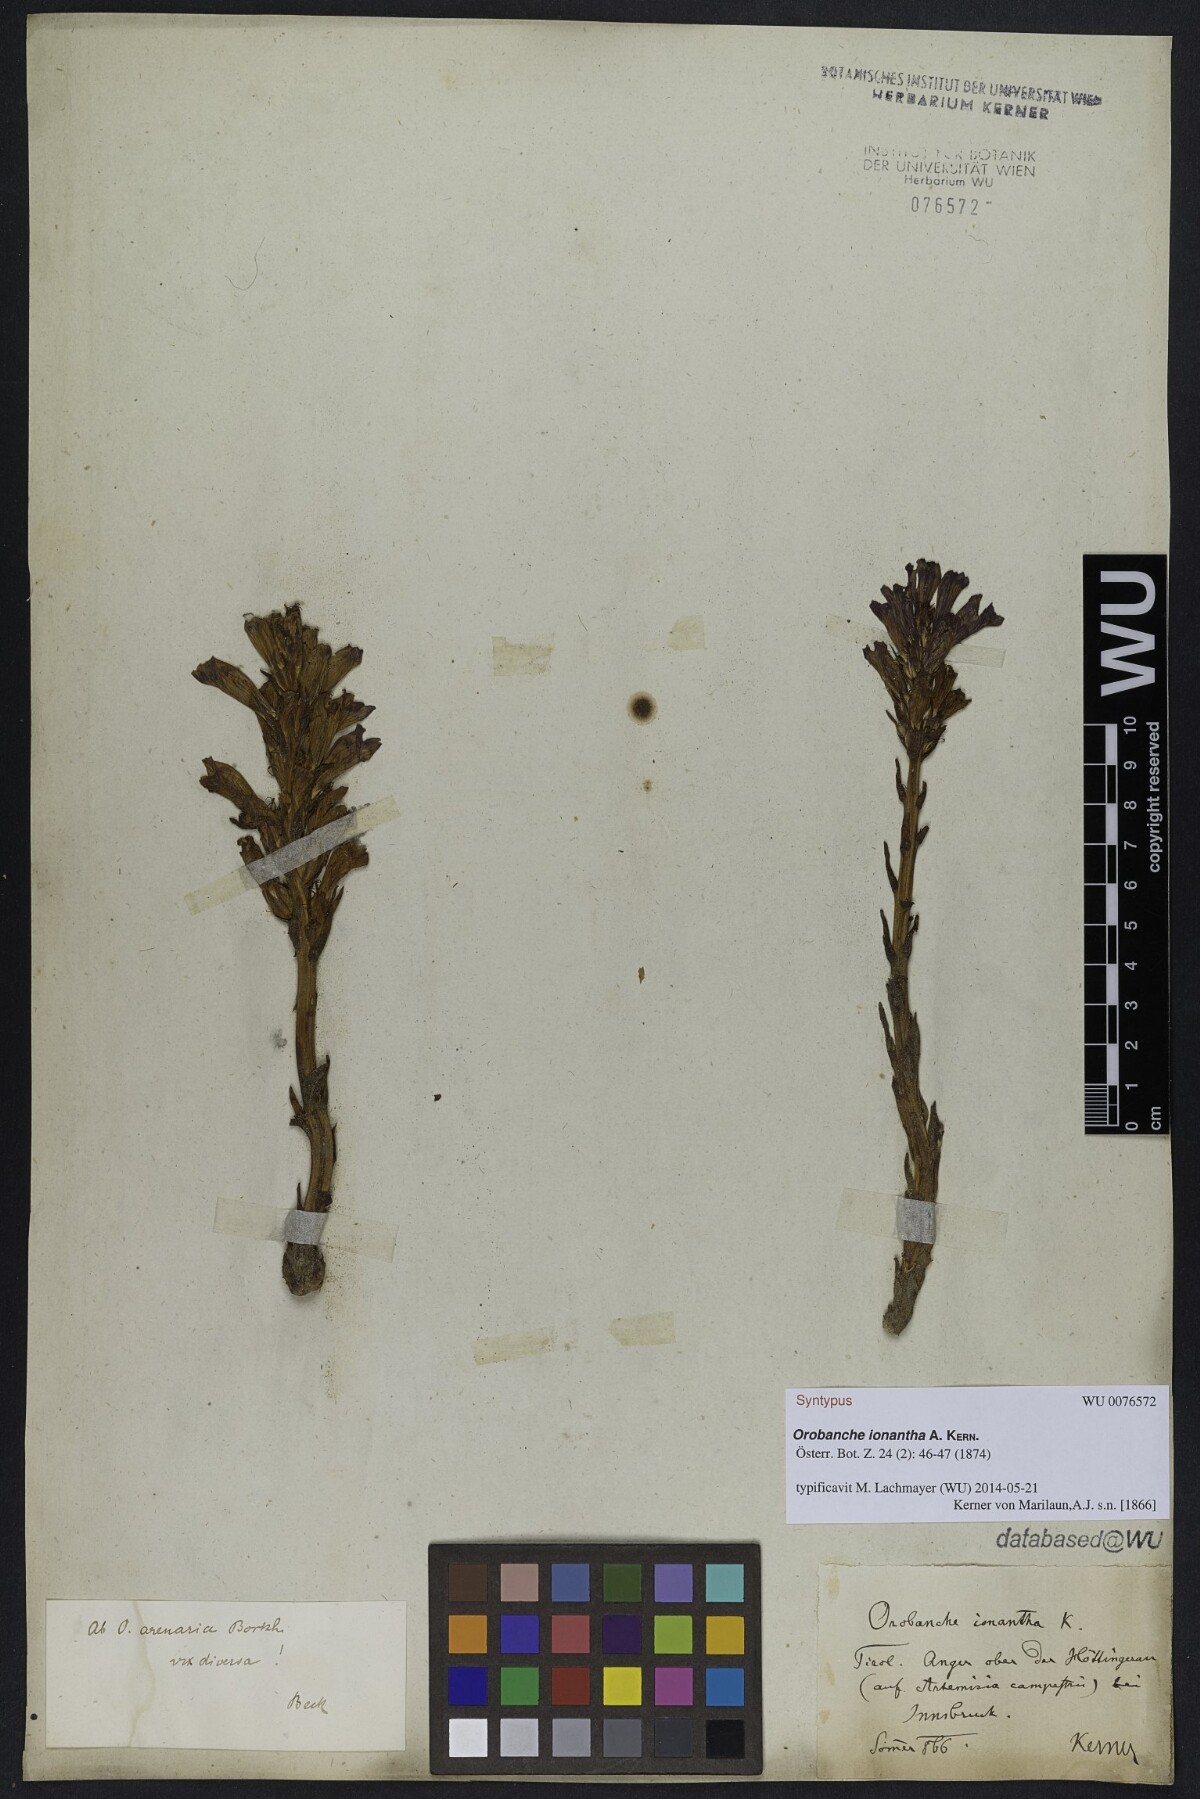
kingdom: Plantae
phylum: Tracheophyta
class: Magnoliopsida
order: Lamiales
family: Orobanchaceae
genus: Phelipanche
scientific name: Phelipanche arenaria
